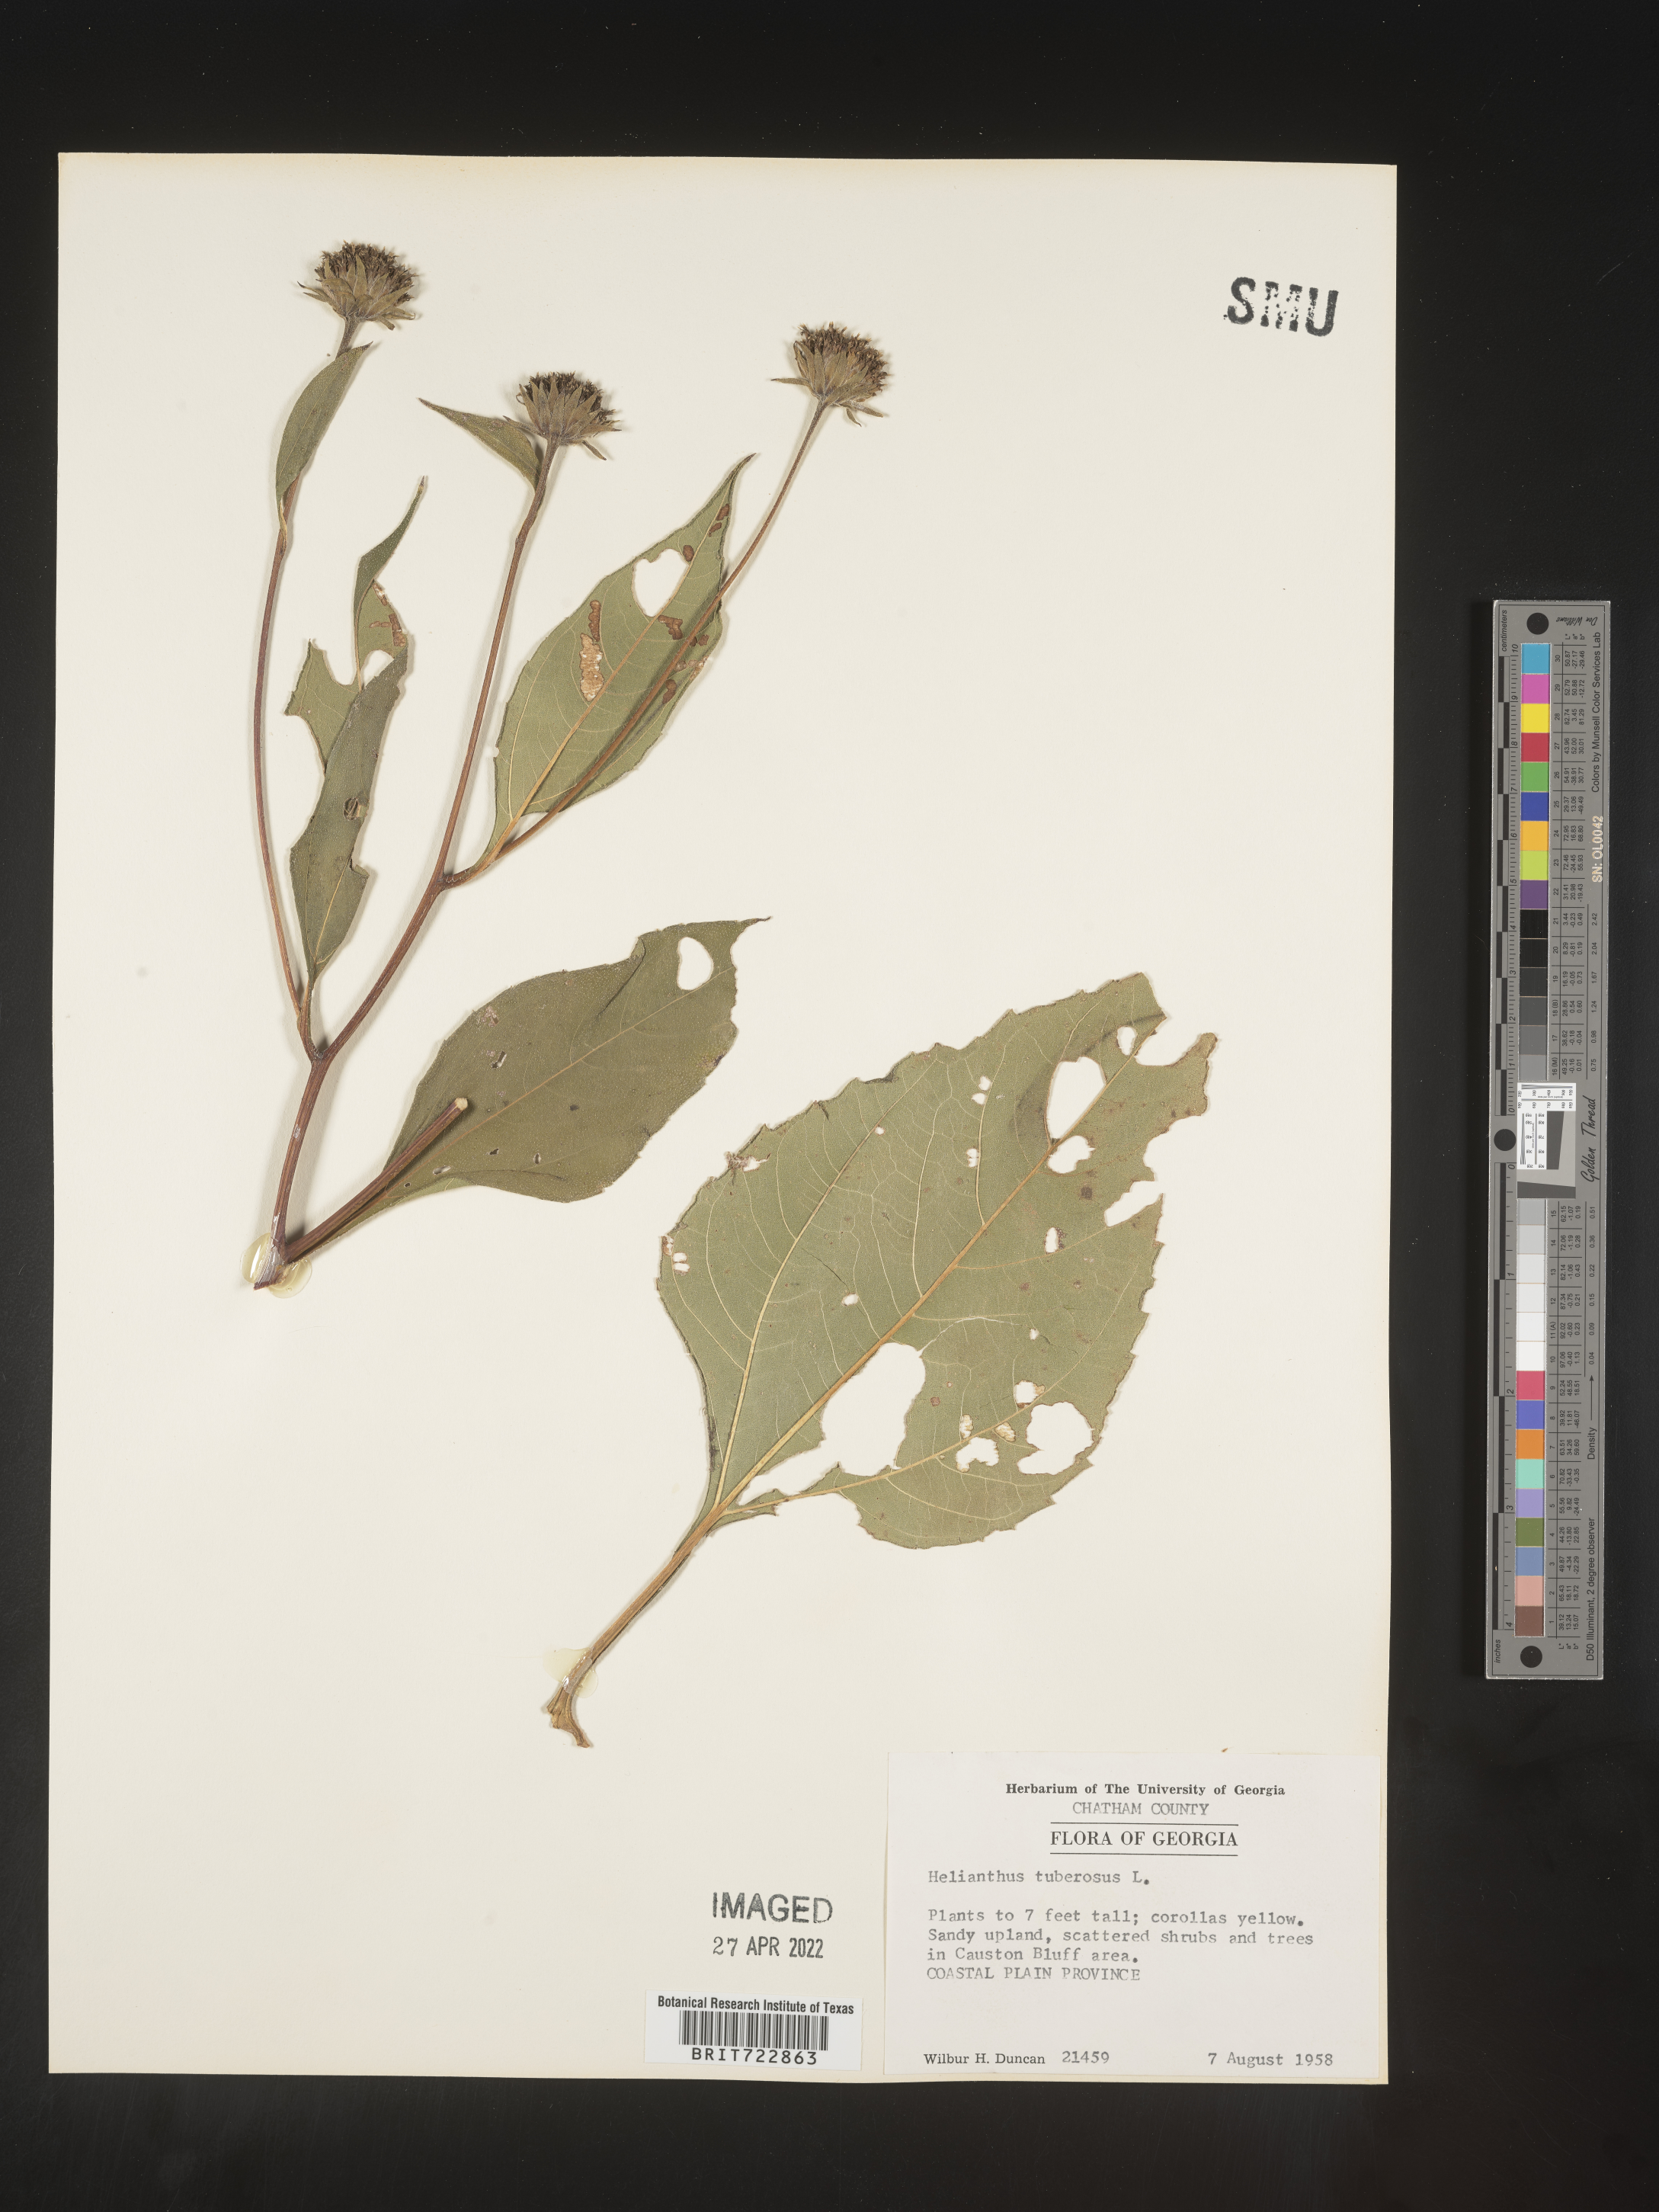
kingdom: Plantae
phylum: Tracheophyta
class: Magnoliopsida
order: Asterales
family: Asteraceae
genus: Helianthus
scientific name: Helianthus tuberosus
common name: Jerusalem artichoke
